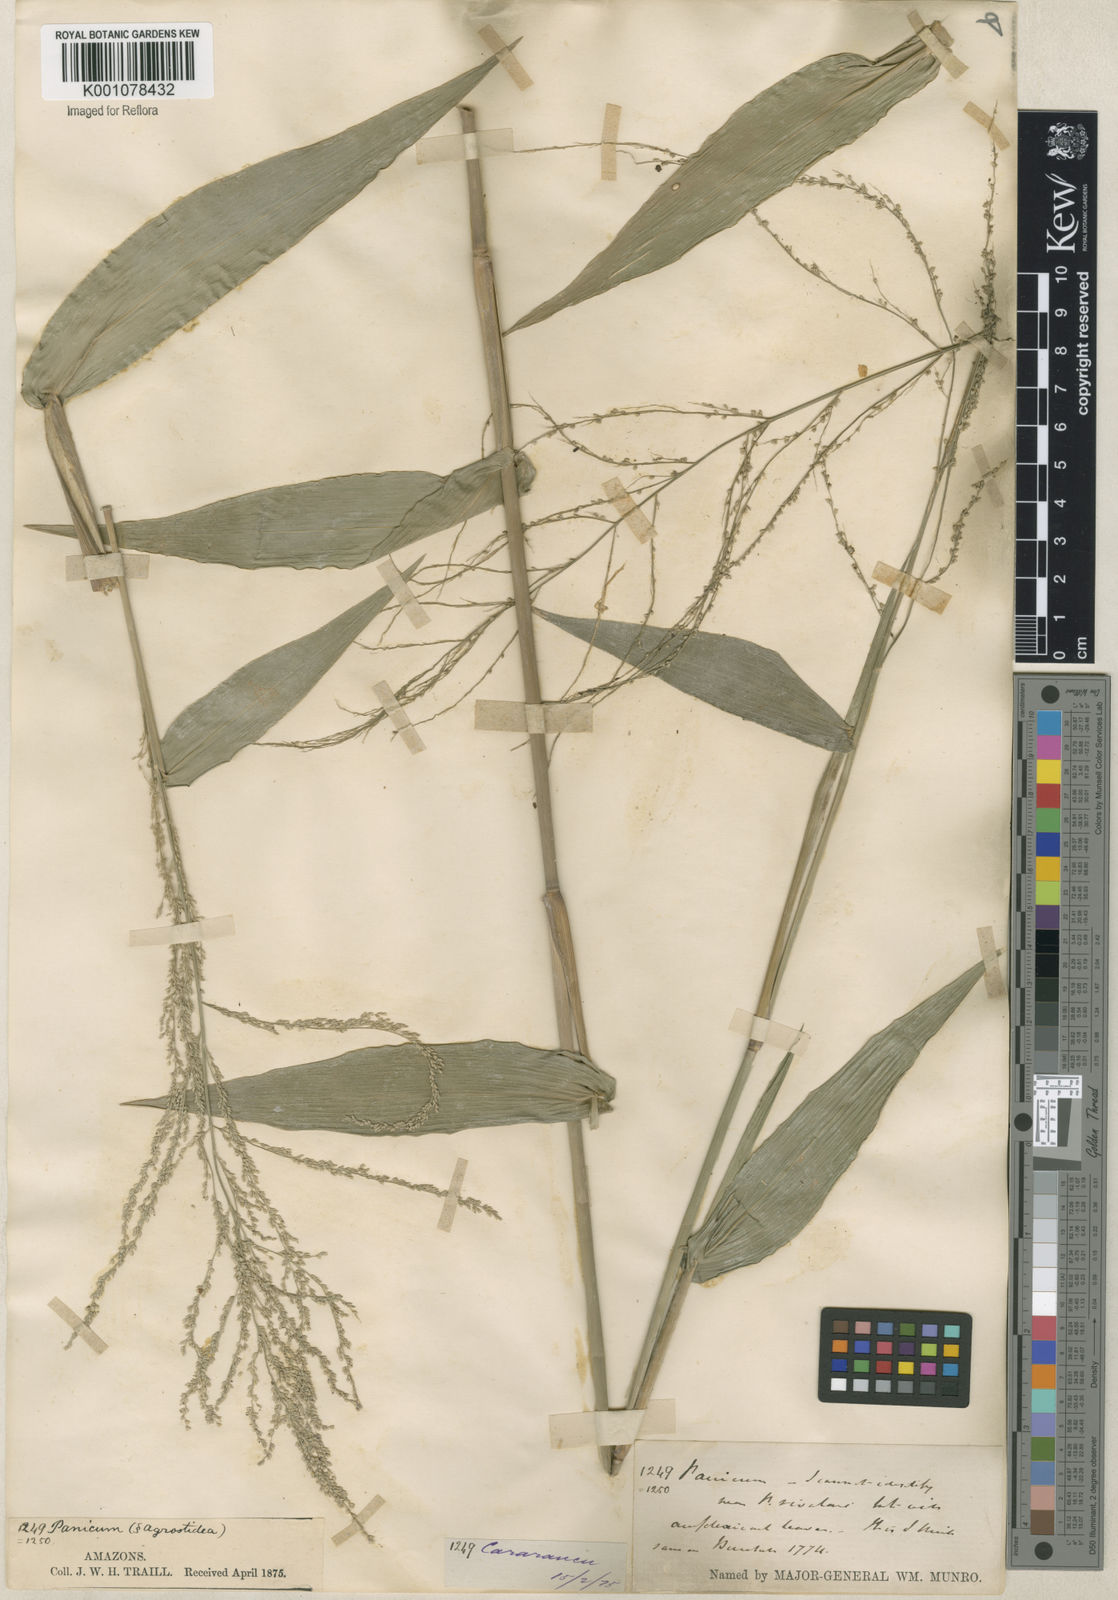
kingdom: Plantae
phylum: Tracheophyta
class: Liliopsida
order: Poales
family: Poaceae
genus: Rugoloa
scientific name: Rugoloa hylaeica
